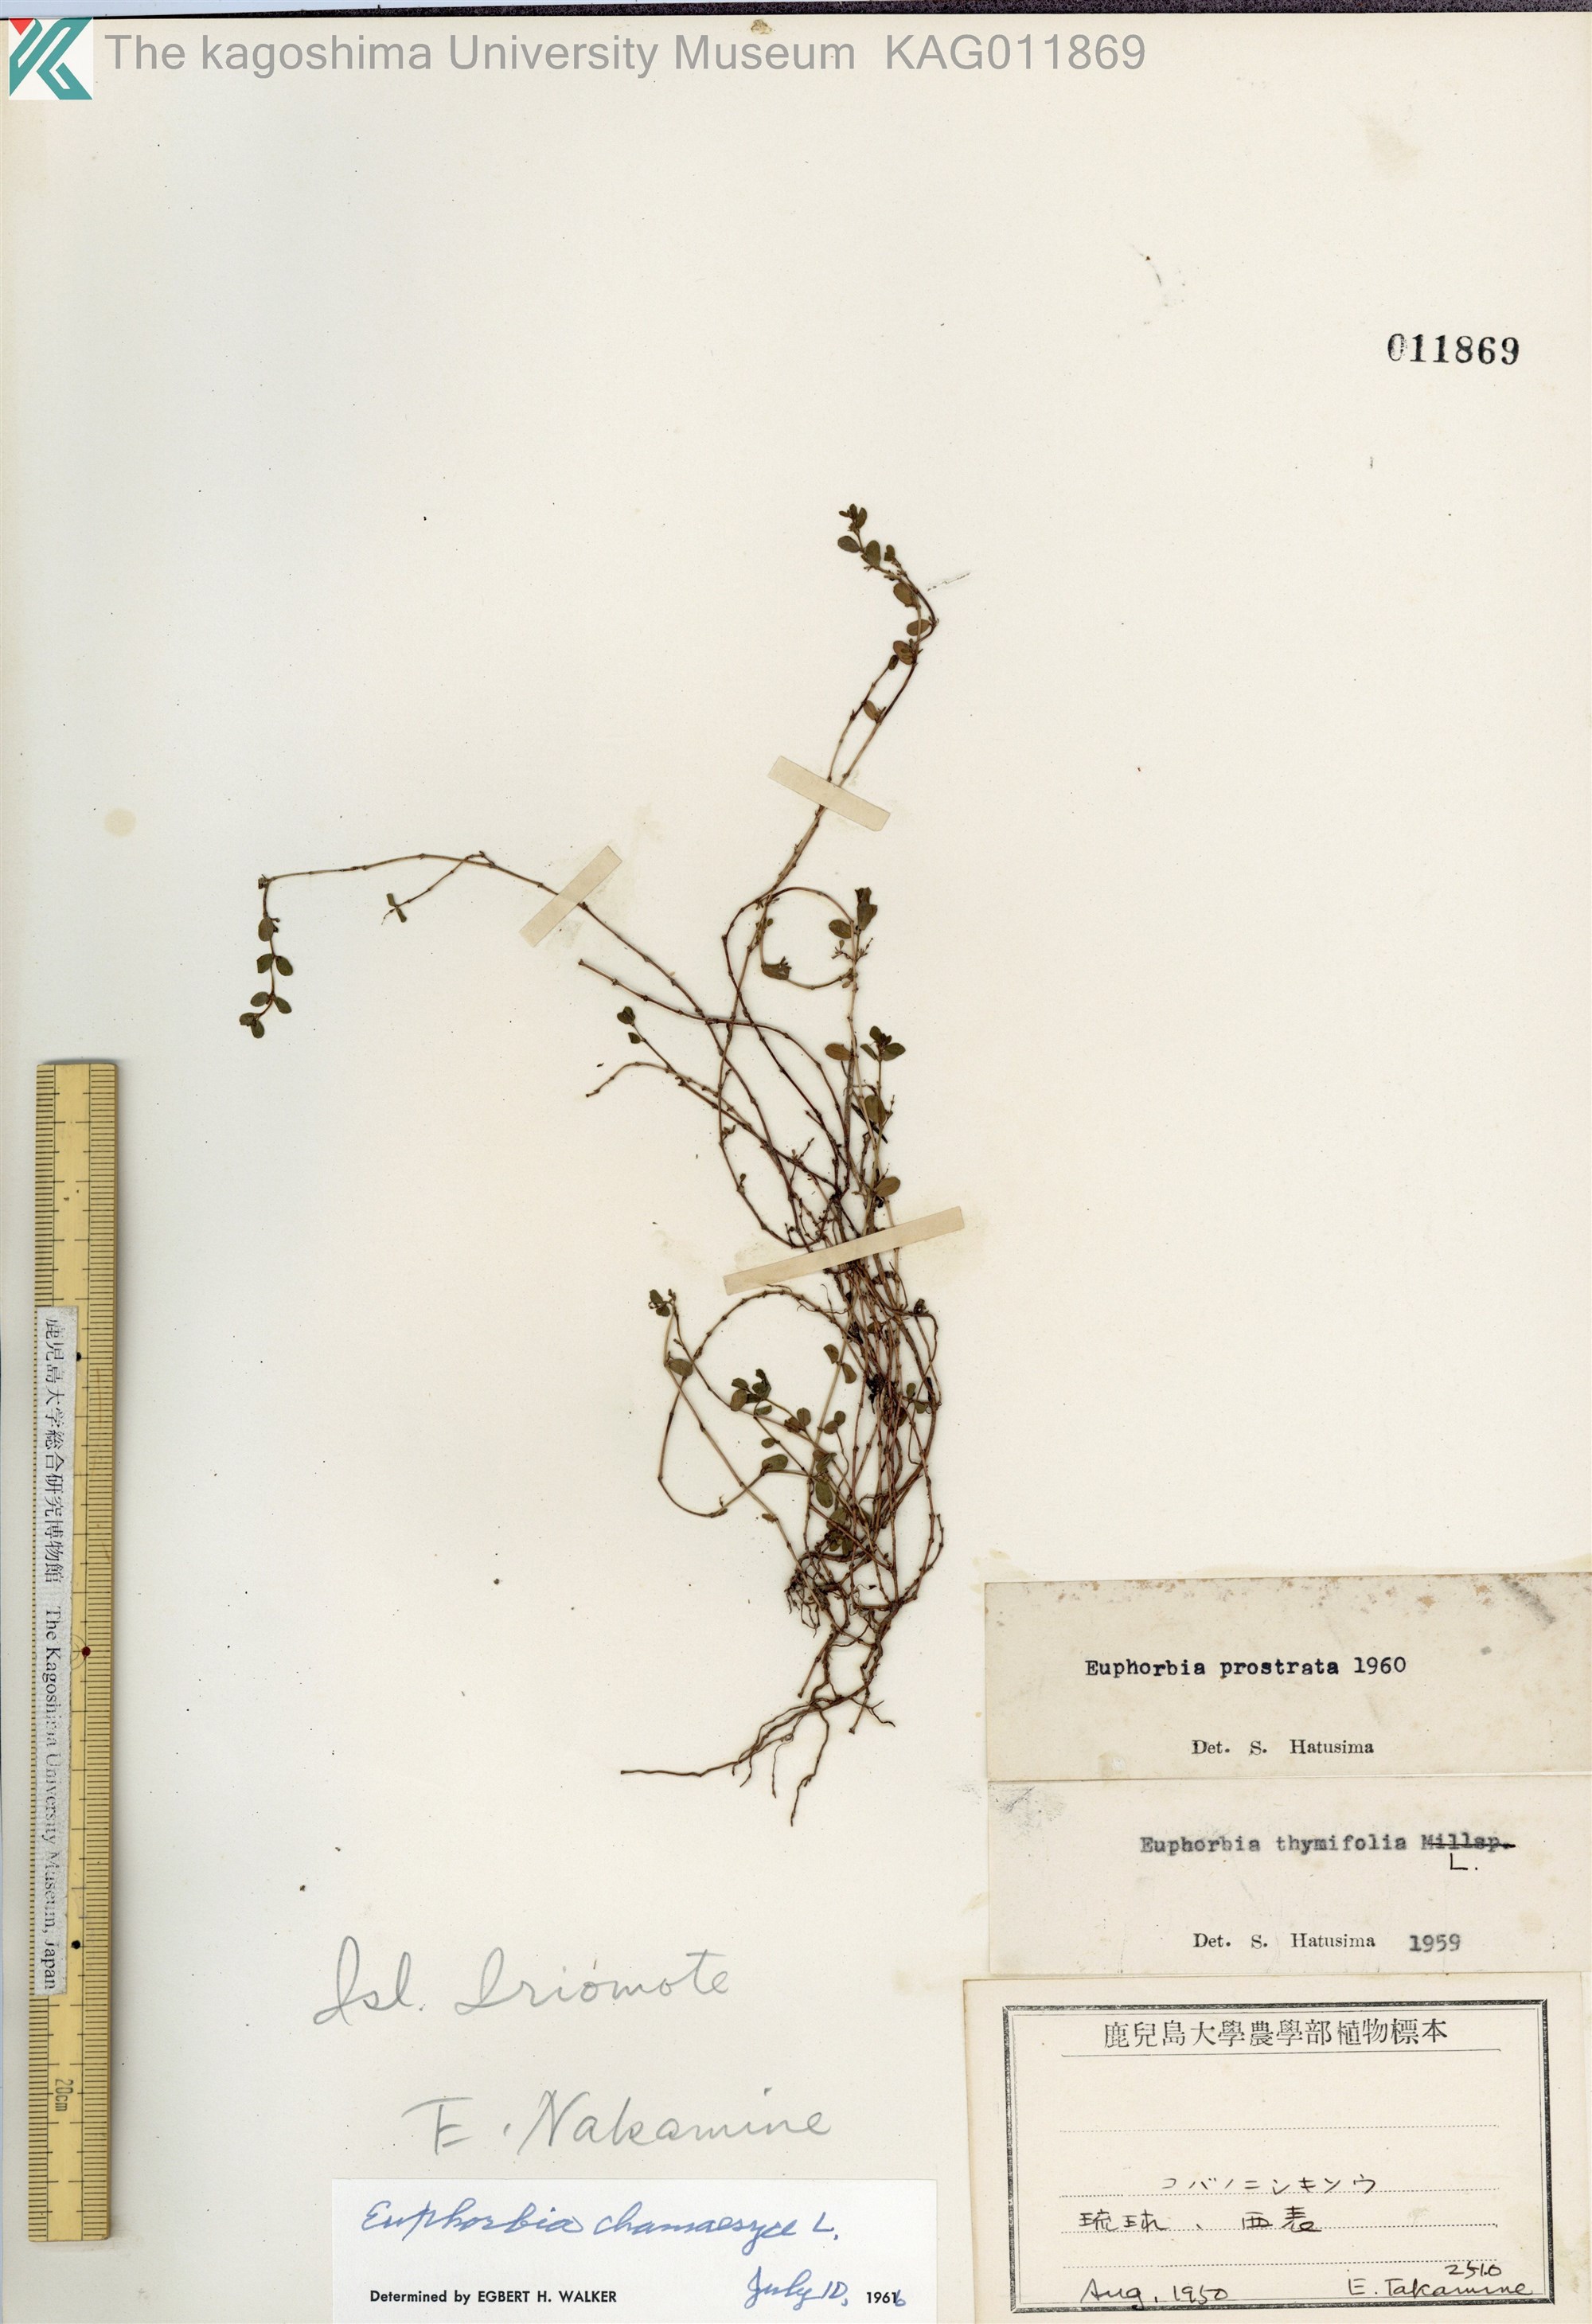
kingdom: Plantae
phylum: Tracheophyta
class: Magnoliopsida
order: Malpighiales
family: Euphorbiaceae
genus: Euphorbia
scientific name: Euphorbia prostrata
